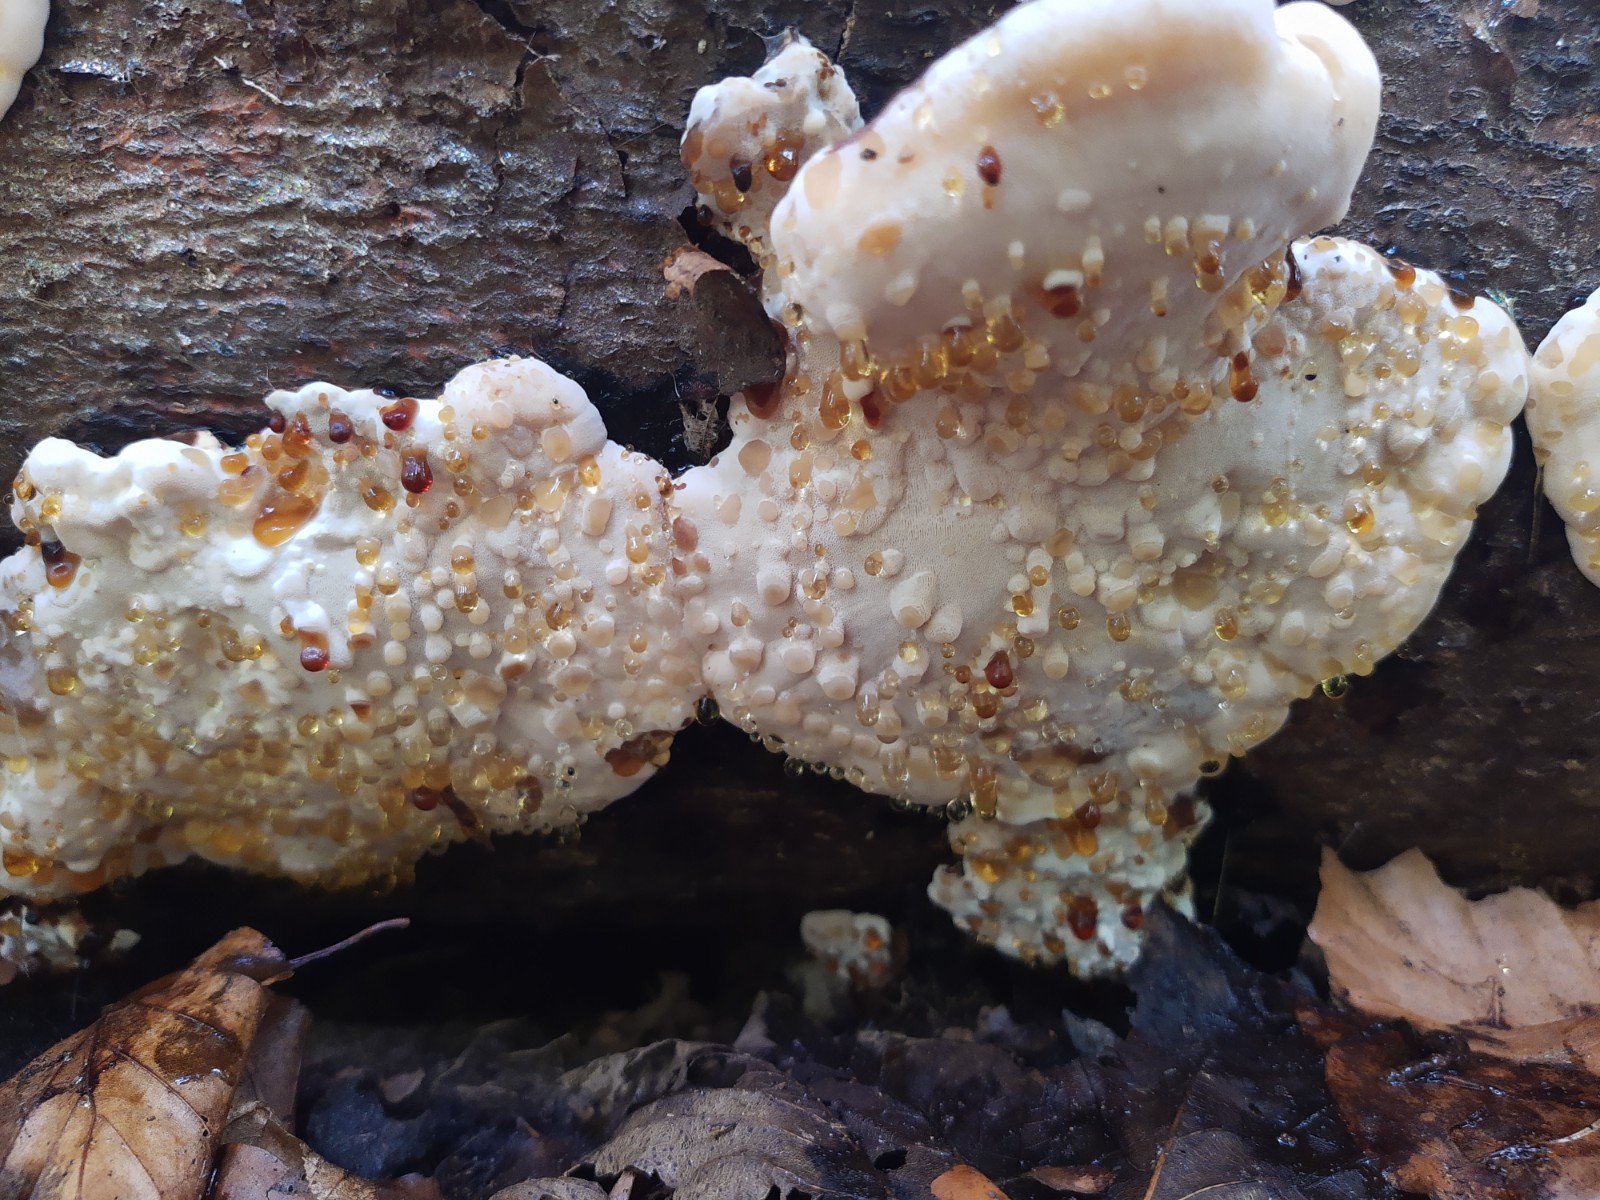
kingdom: Fungi
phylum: Basidiomycota
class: Agaricomycetes
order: Polyporales
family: Ischnodermataceae
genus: Ischnoderma
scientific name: Ischnoderma resinosum
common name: løv-tjæreporesvamp
